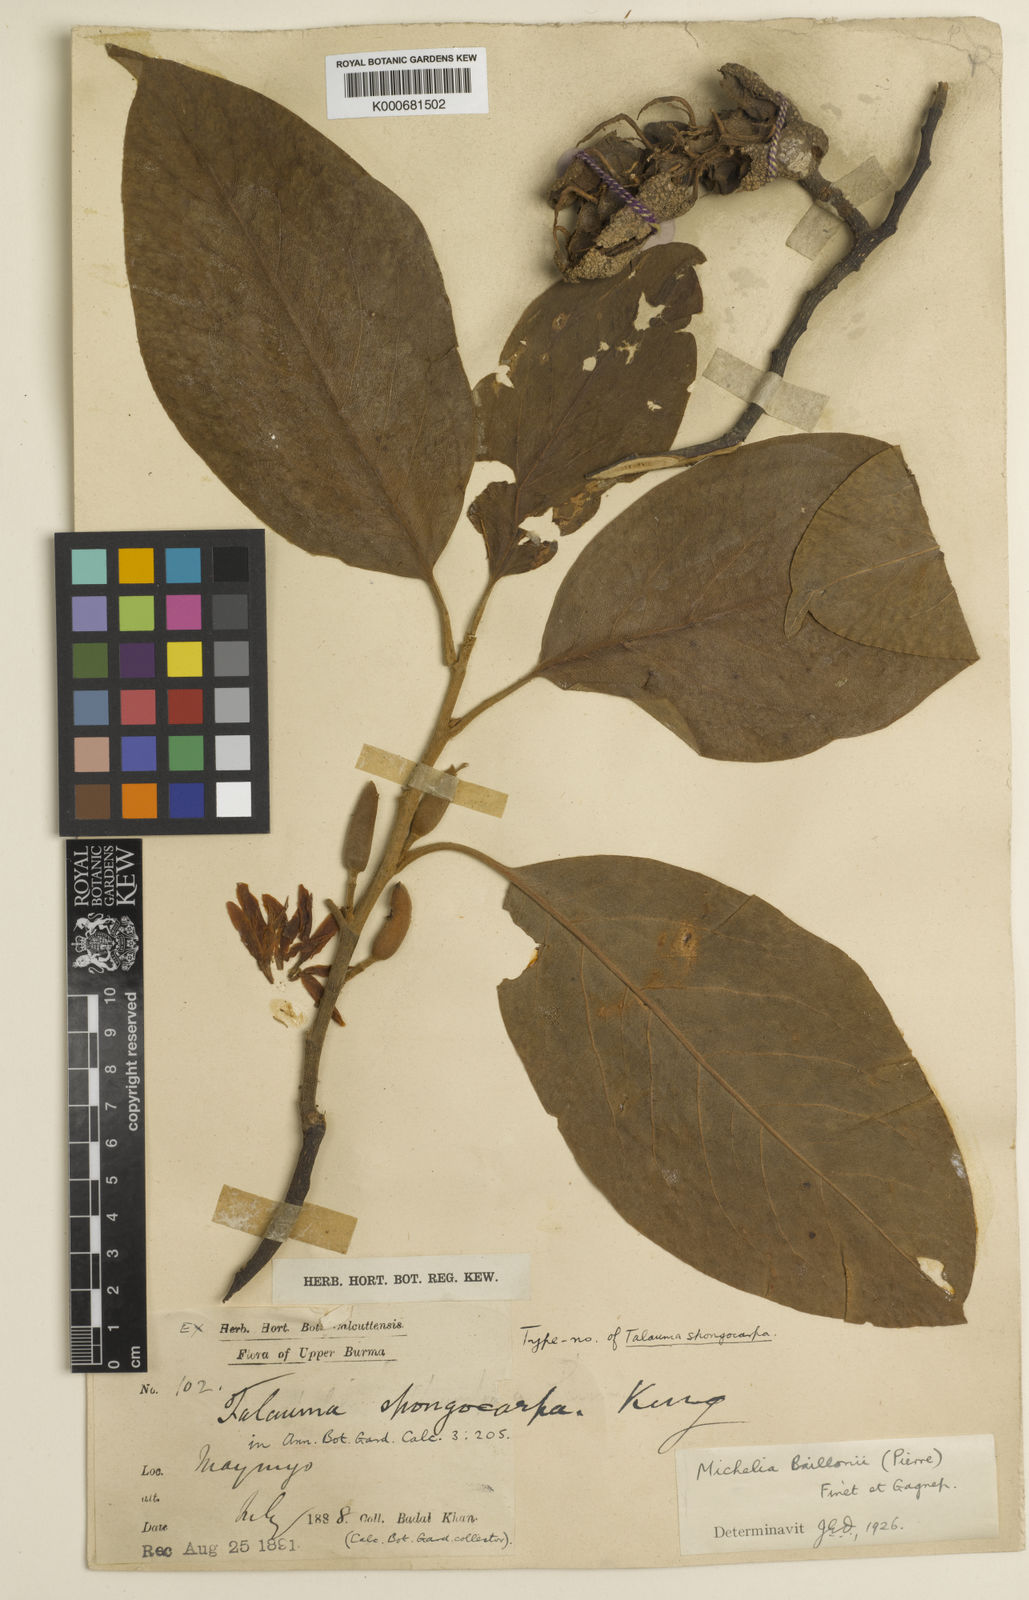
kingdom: Plantae
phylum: Tracheophyta
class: Magnoliopsida
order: Magnoliales
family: Magnoliaceae
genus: Magnolia
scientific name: Magnolia baillonii
